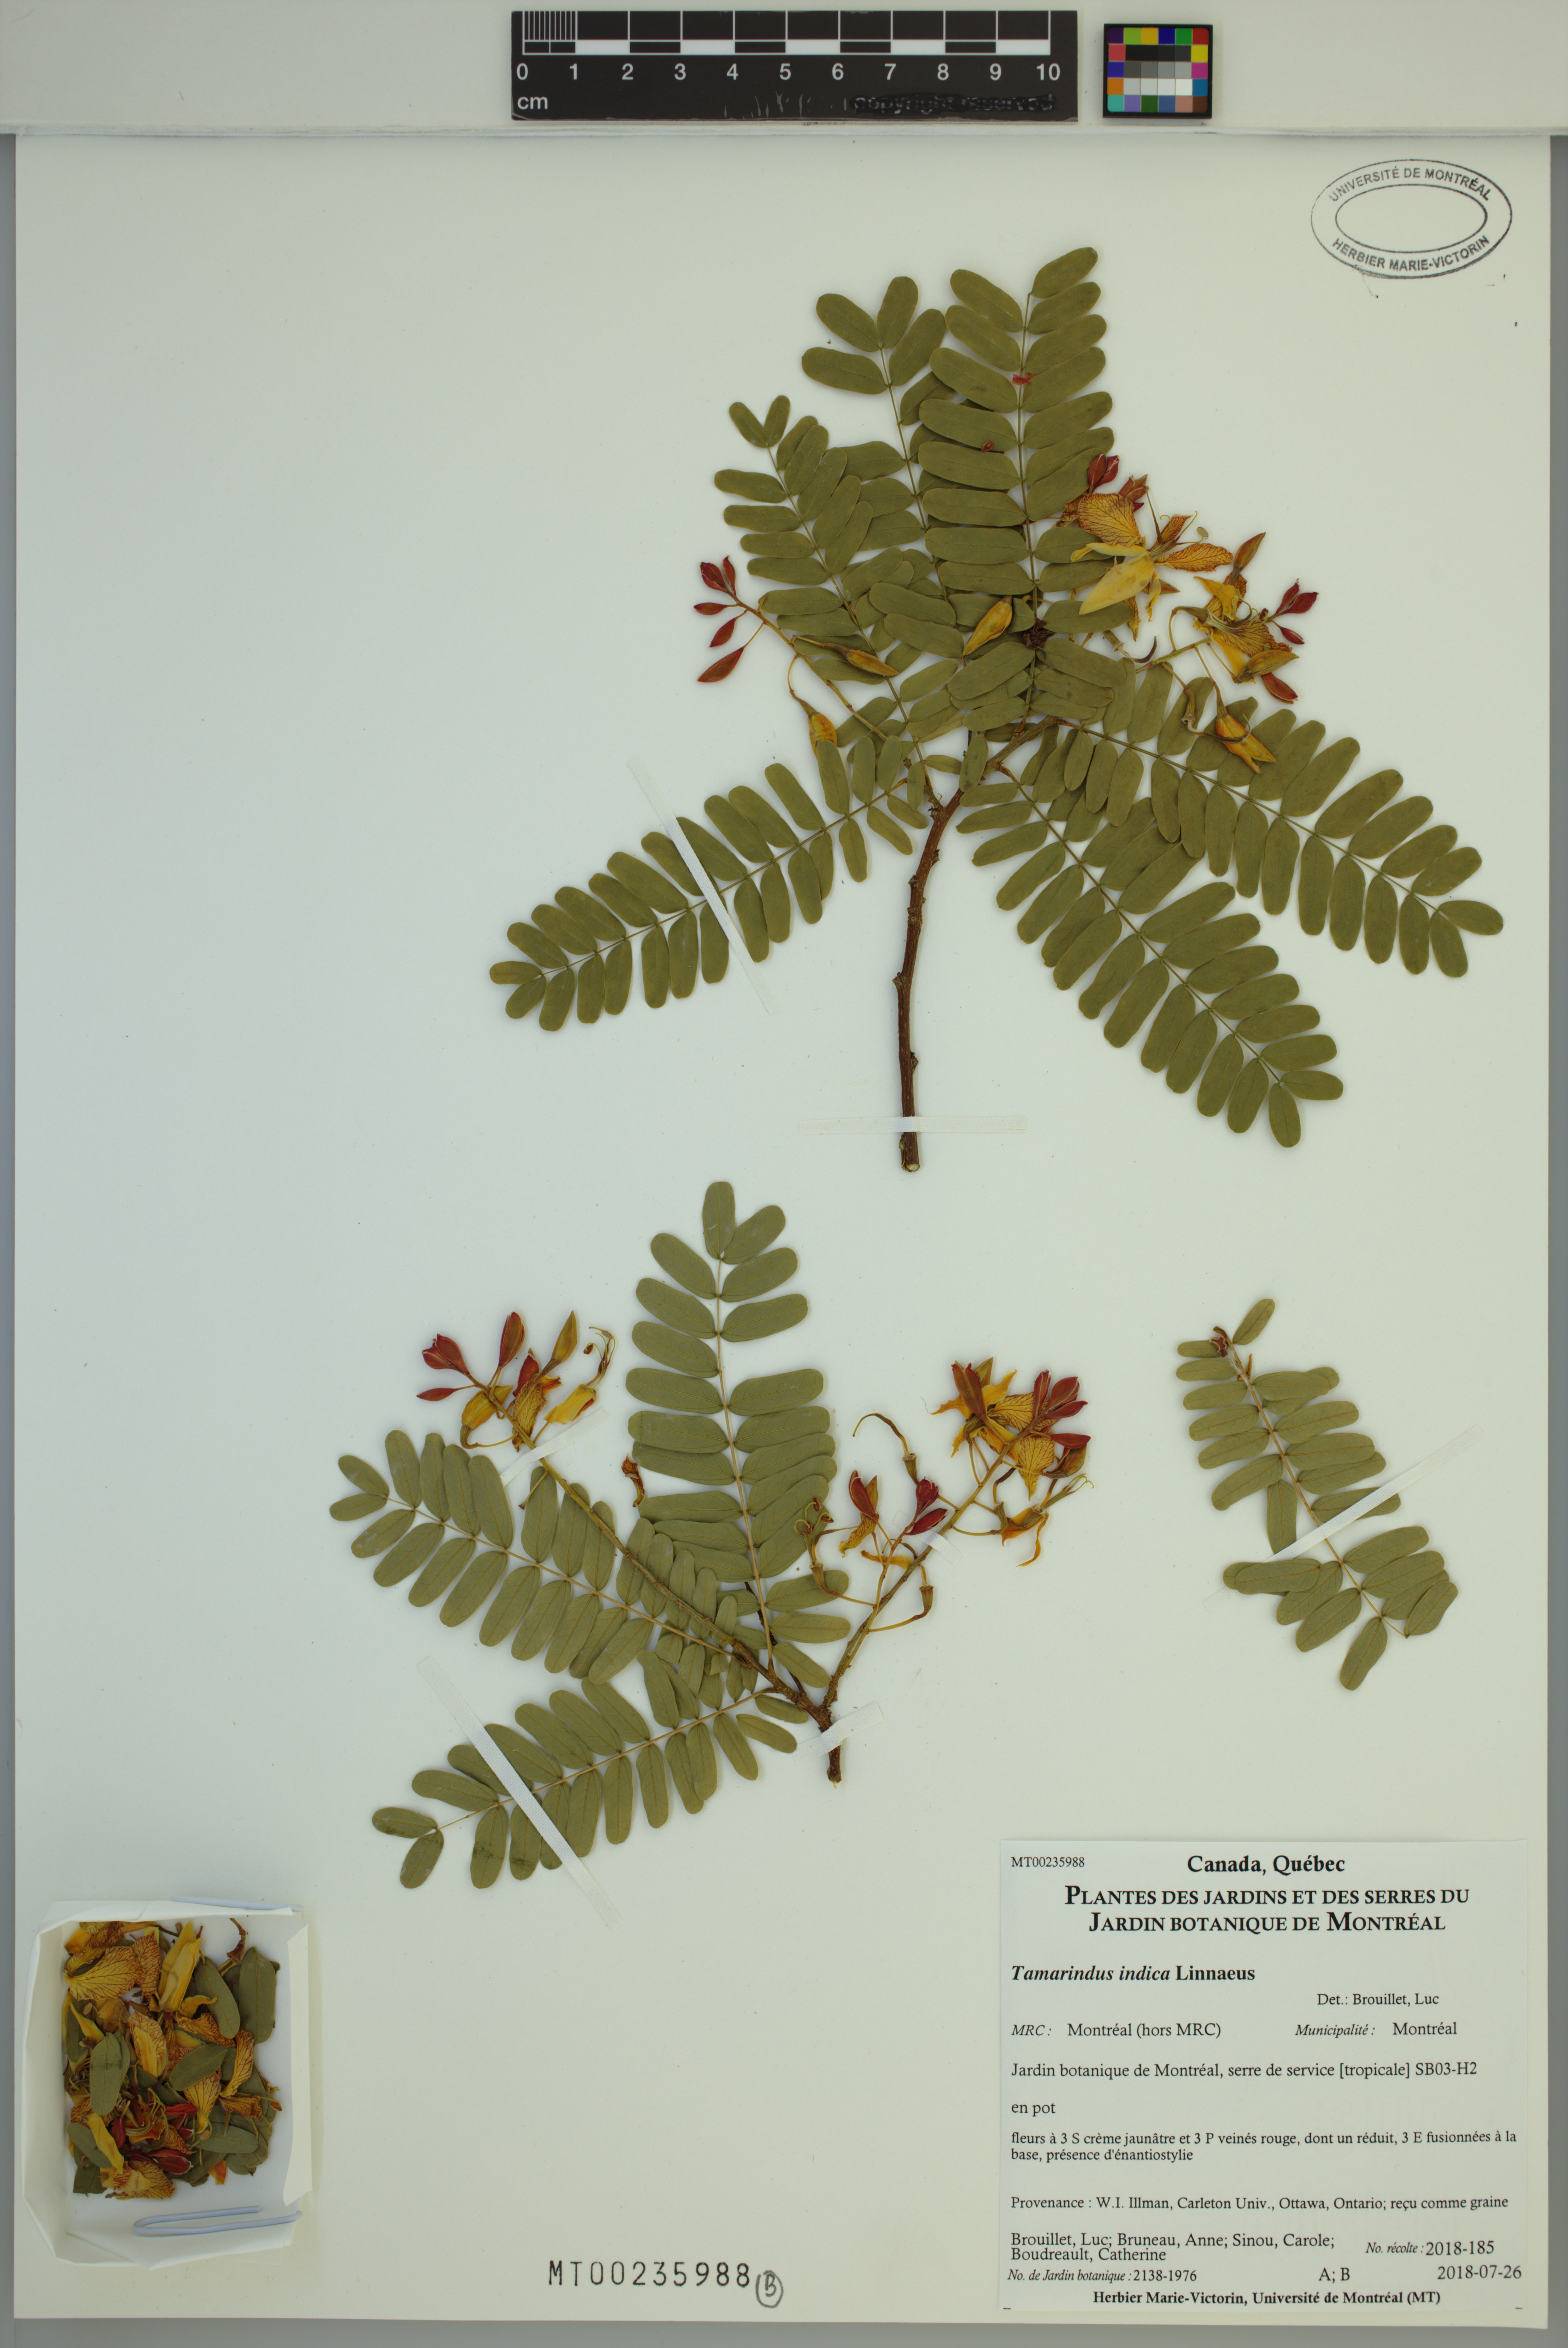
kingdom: Plantae
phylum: Tracheophyta
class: Magnoliopsida
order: Fabales
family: Fabaceae
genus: Tamarindus
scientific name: Tamarindus indica
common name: Tamarind
